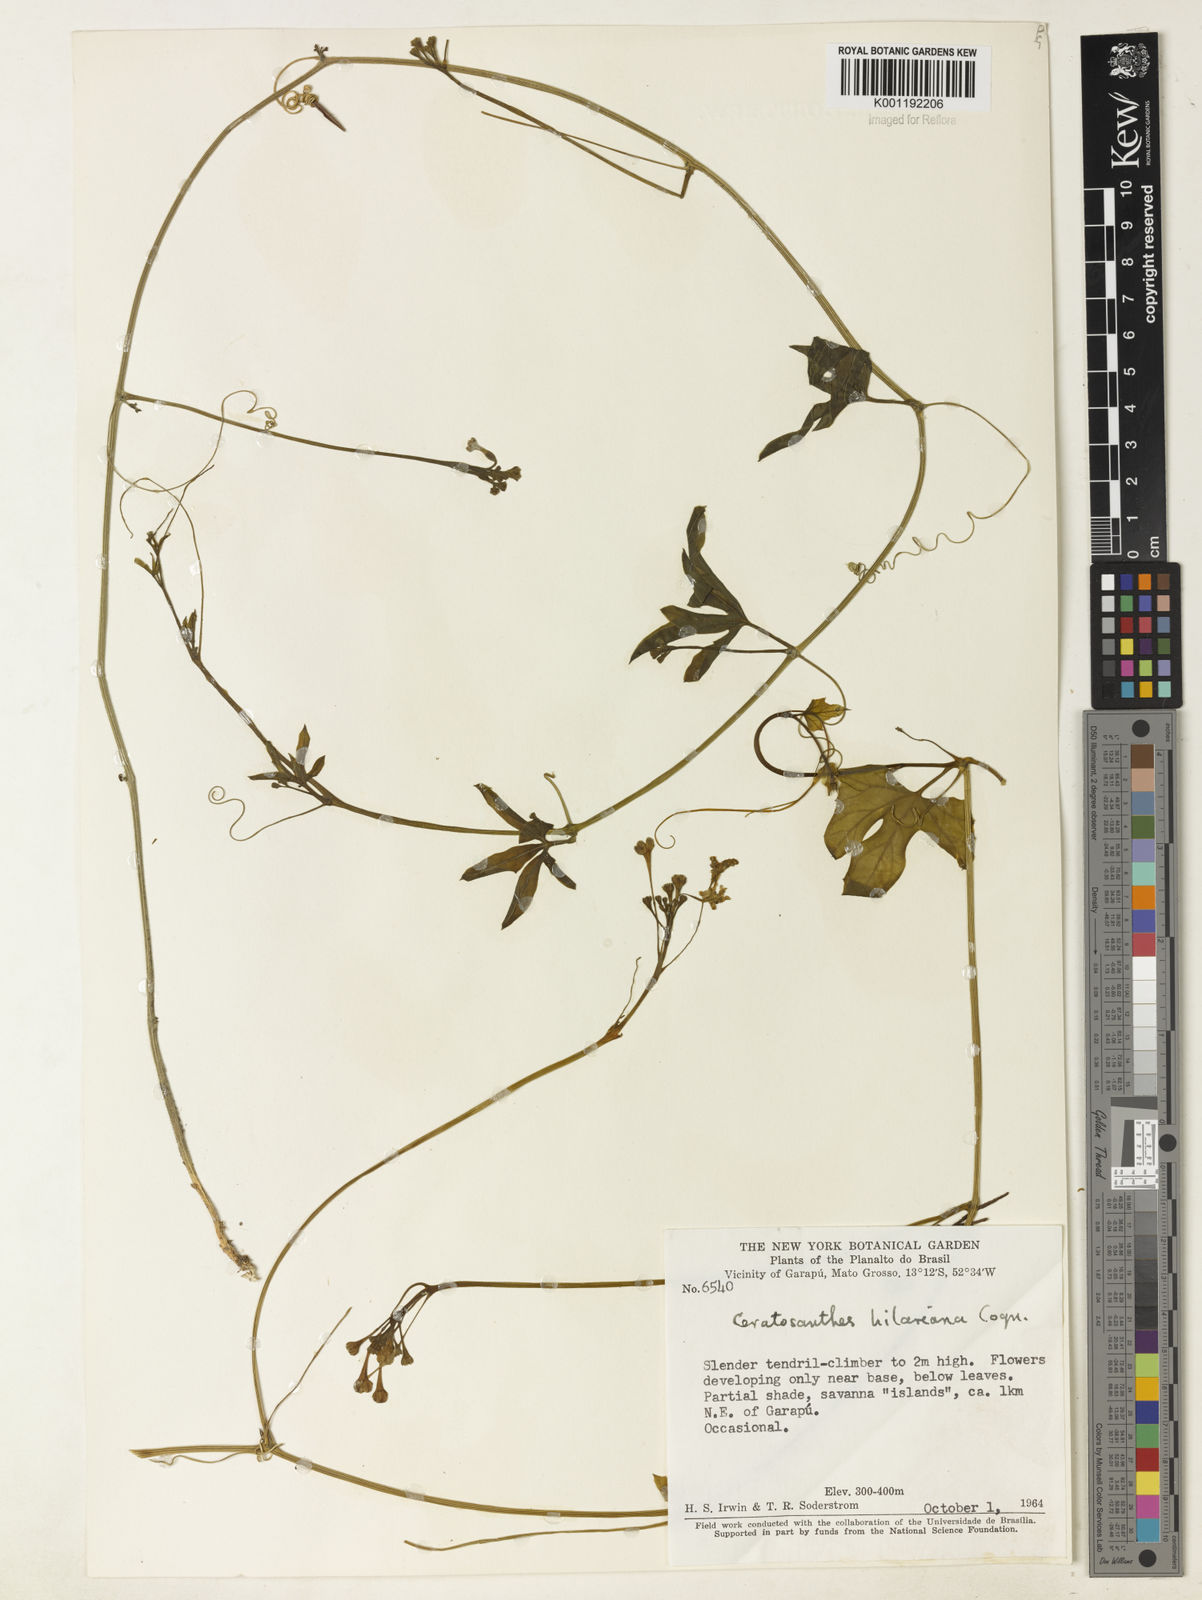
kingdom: Plantae
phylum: Tracheophyta
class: Magnoliopsida
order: Cucurbitales
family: Cucurbitaceae
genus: Ceratosanthes
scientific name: Ceratosanthes hilariana
